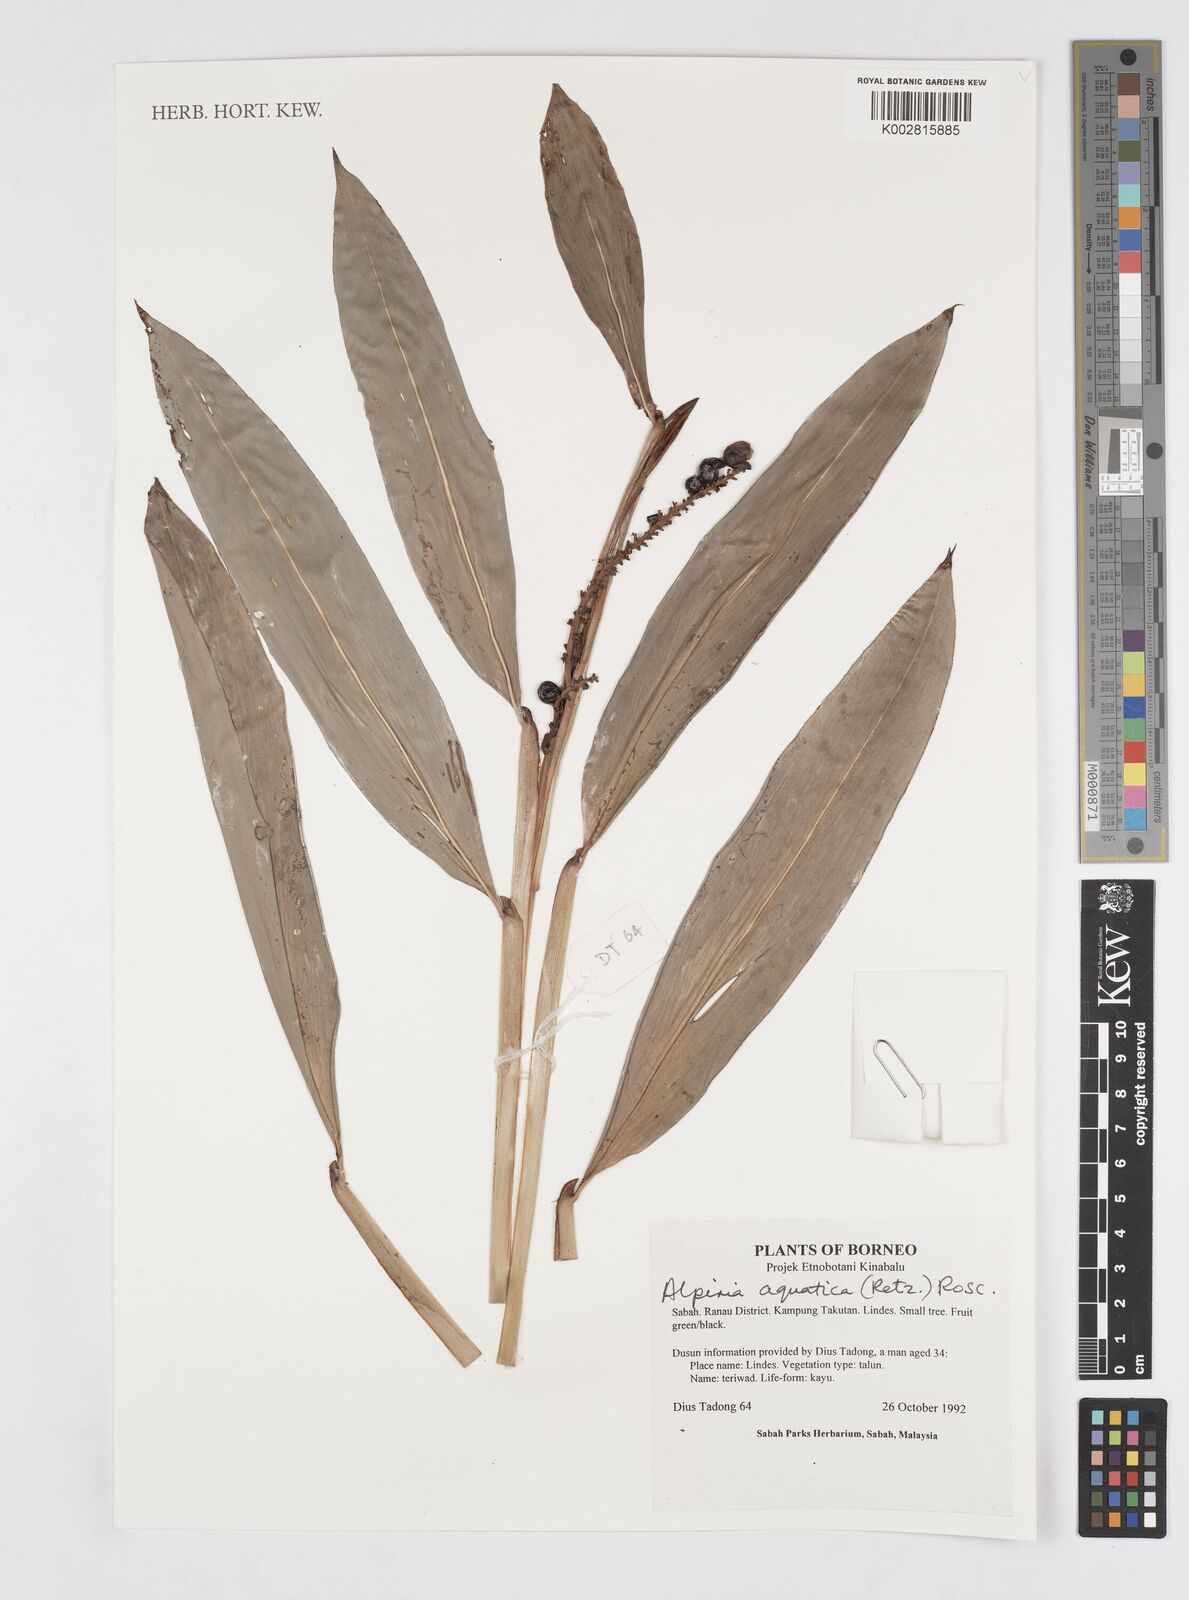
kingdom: Plantae
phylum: Tracheophyta
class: Liliopsida
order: Zingiberales
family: Zingiberaceae
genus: Alpinia
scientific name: Alpinia aquatica
